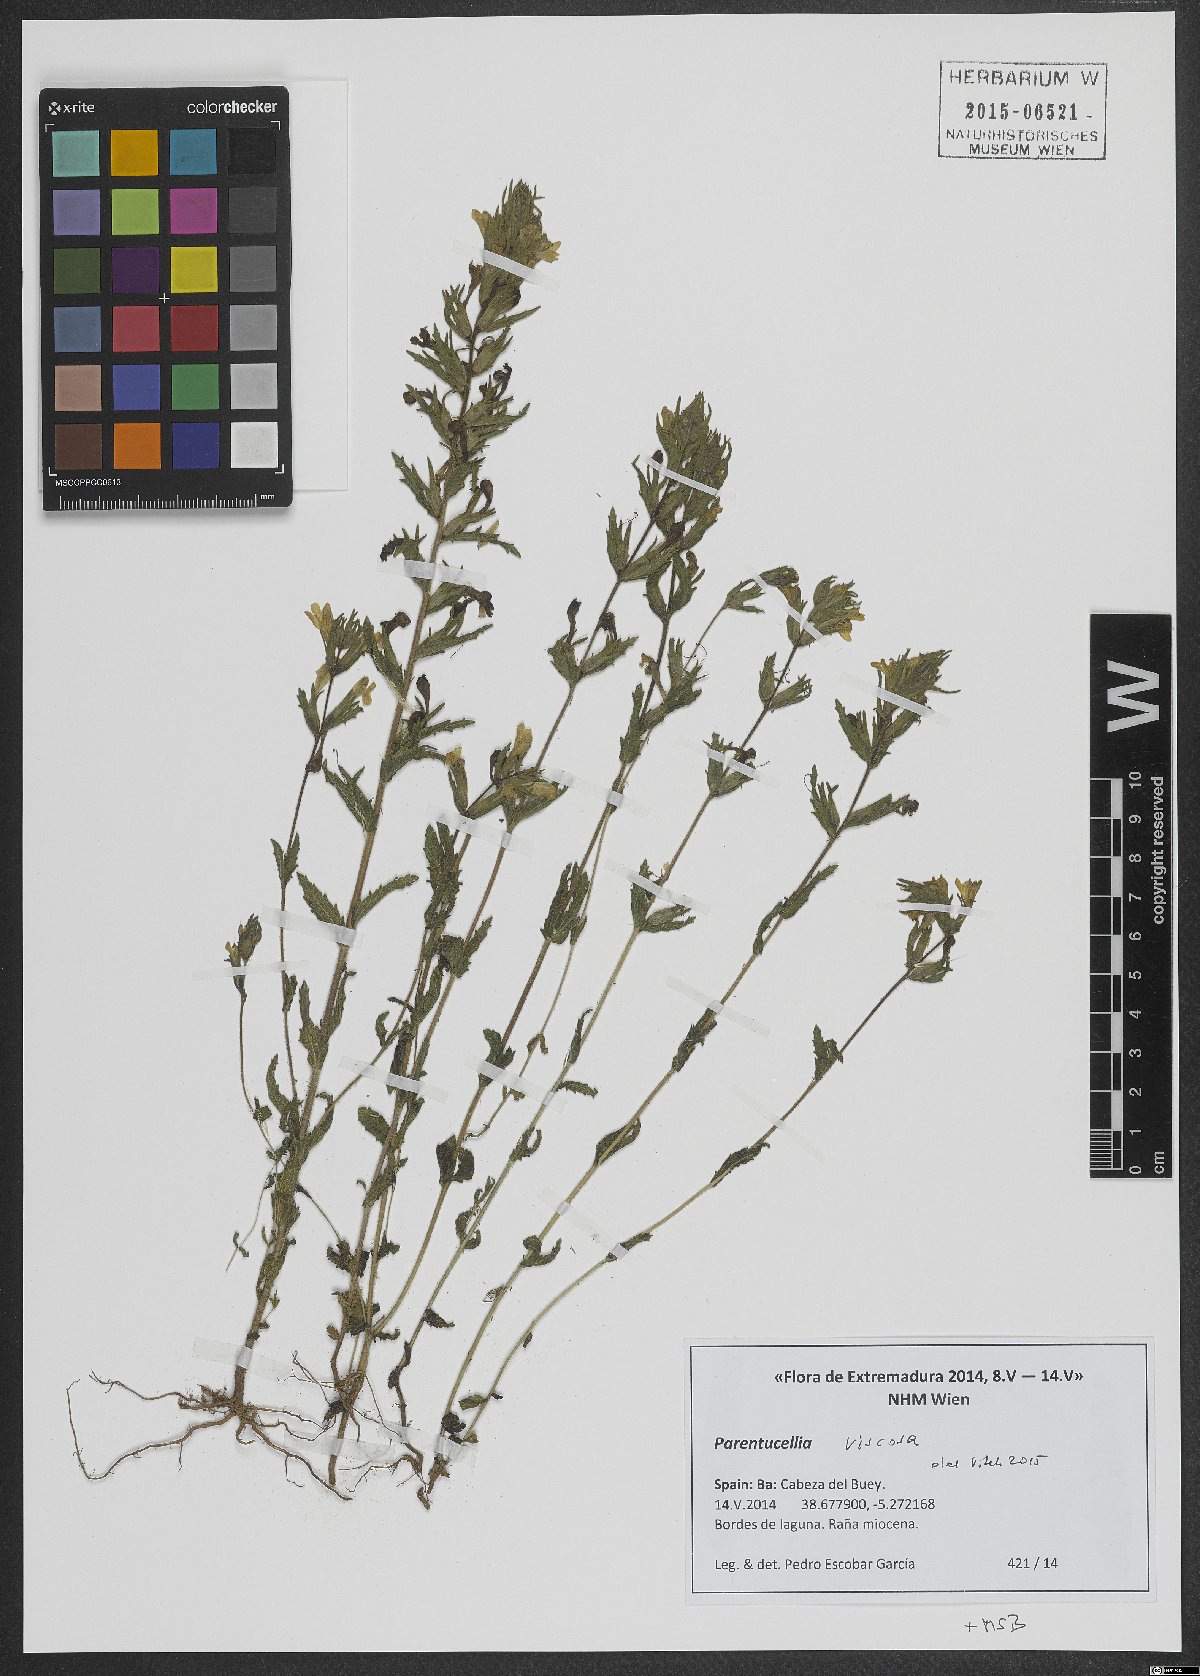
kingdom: Plantae
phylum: Tracheophyta
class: Magnoliopsida
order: Lamiales
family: Orobanchaceae
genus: Bellardia
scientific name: Bellardia viscosa
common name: Sticky parentucellia
